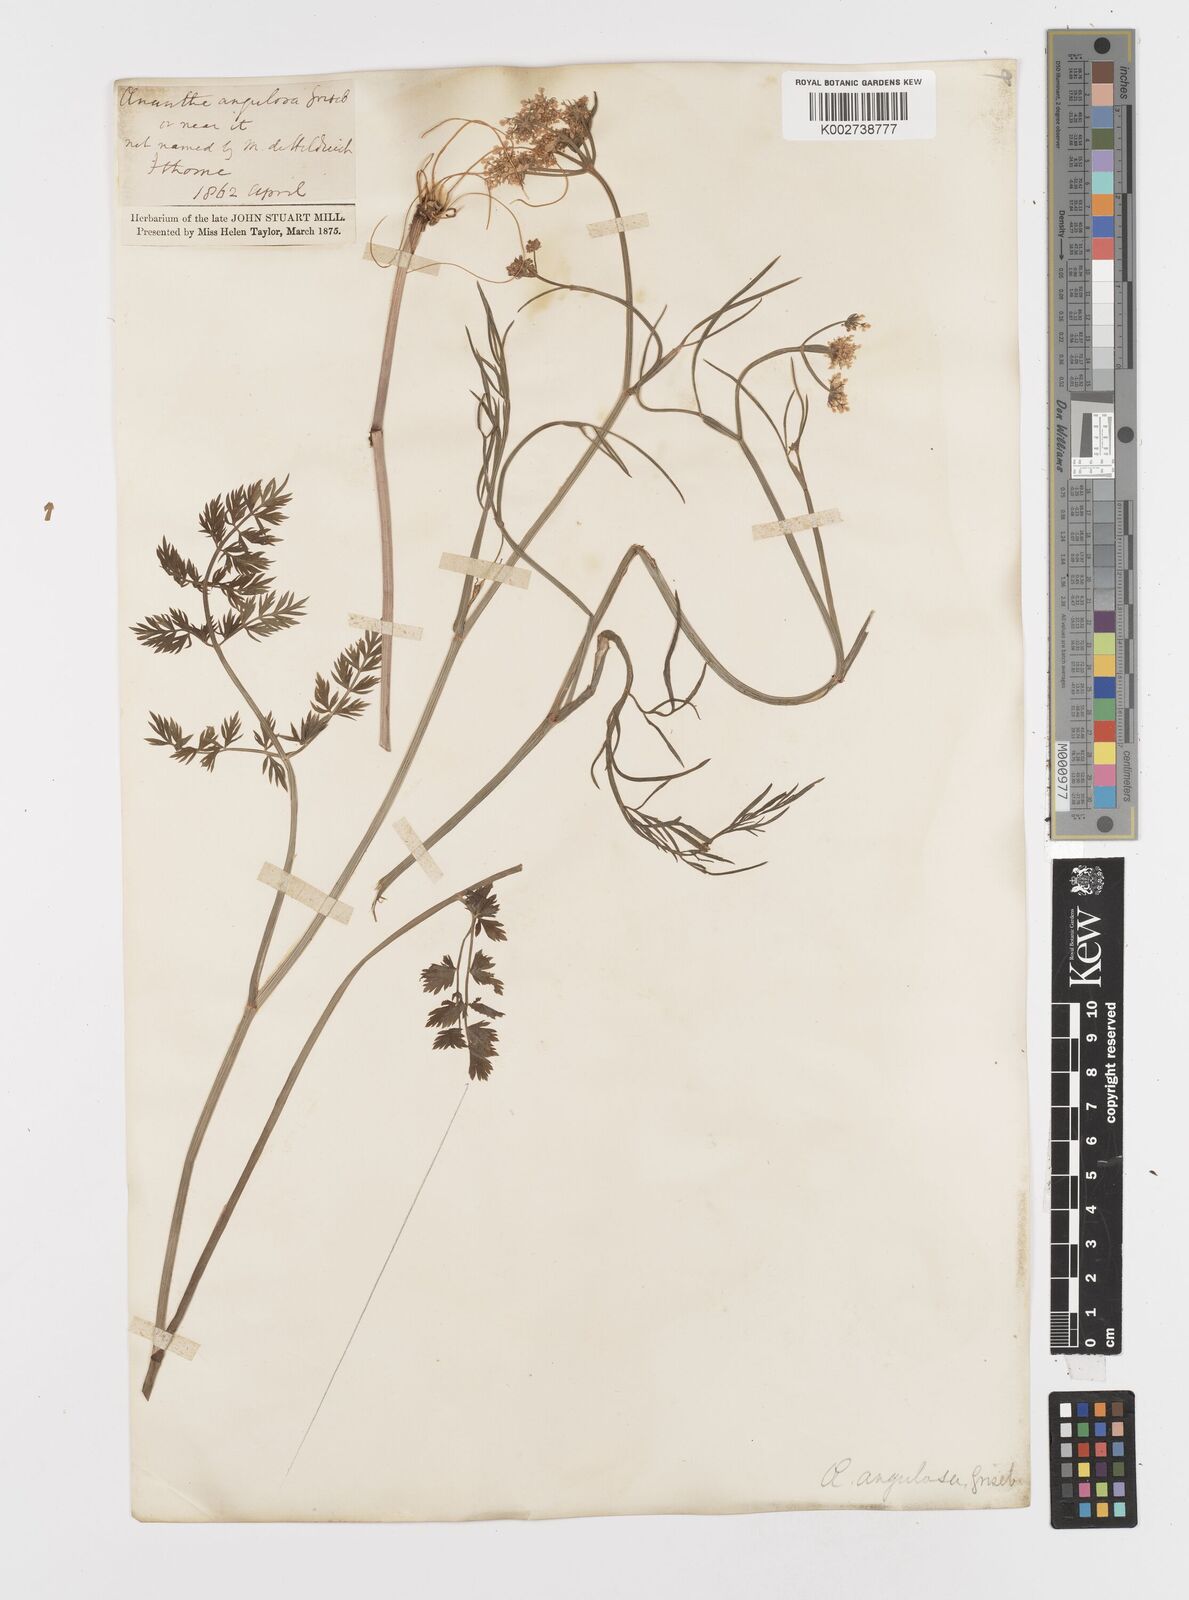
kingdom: Plantae
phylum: Tracheophyta
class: Magnoliopsida
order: Apiales
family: Apiaceae
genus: Oenanthe
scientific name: Oenanthe pimpinelloides
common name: Corky-fruited water-dropwort
